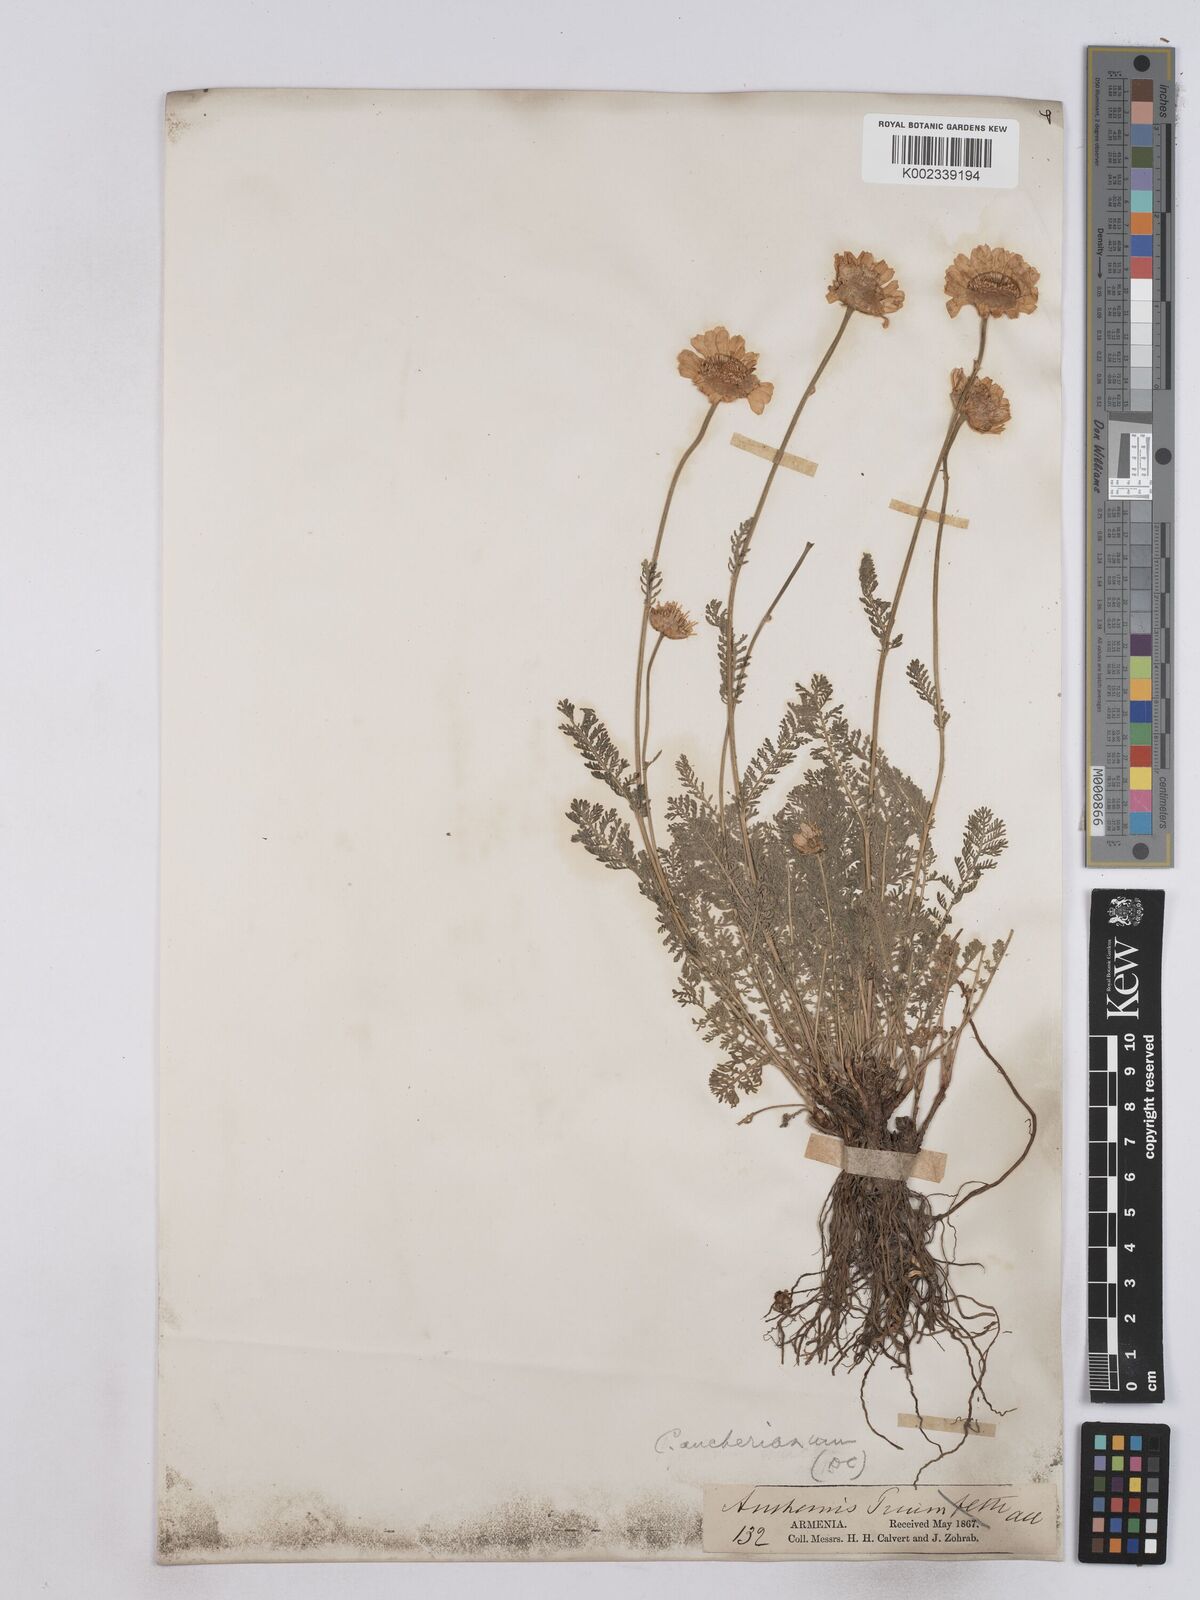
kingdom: Plantae
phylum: Tracheophyta
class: Magnoliopsida
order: Asterales
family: Asteraceae
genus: Tanacetum
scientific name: Tanacetum aucherianum
